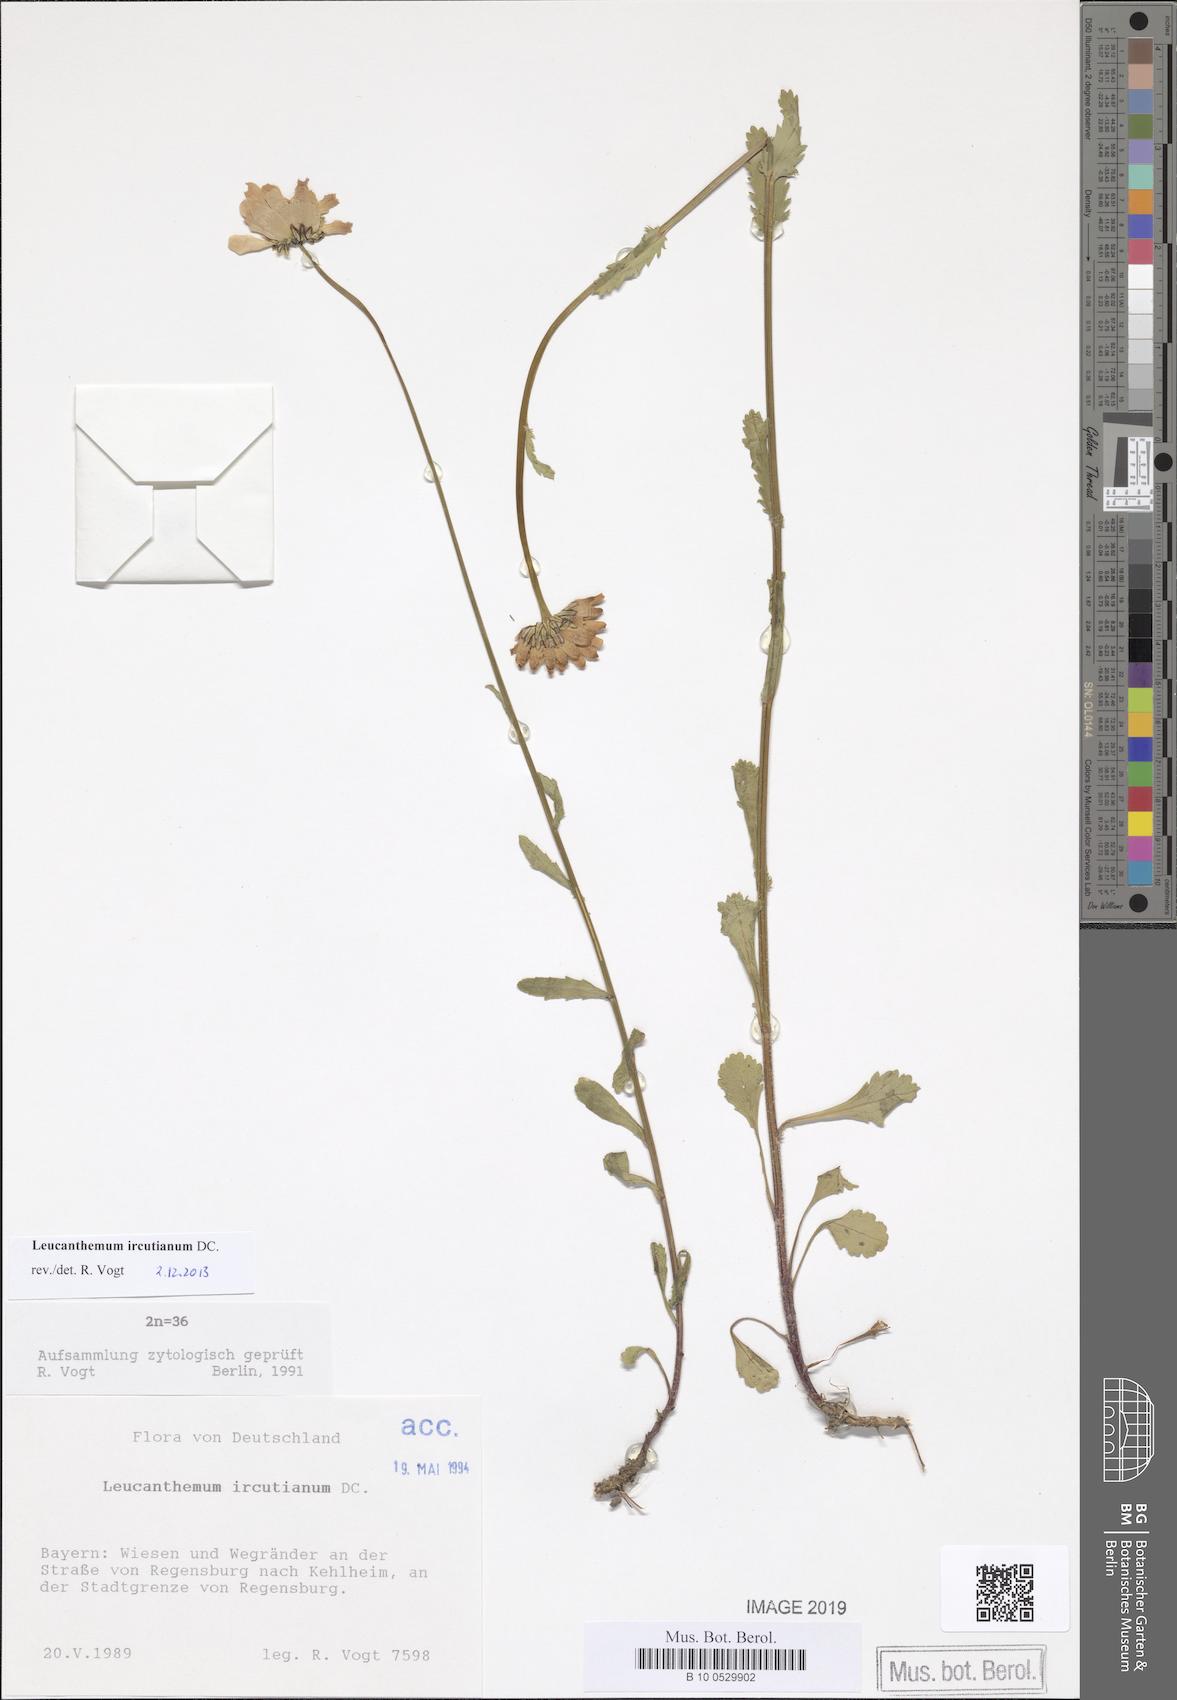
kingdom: Plantae
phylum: Tracheophyta
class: Magnoliopsida
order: Asterales
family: Asteraceae
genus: Leucanthemum
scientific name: Leucanthemum ircutianum
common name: Daisy
